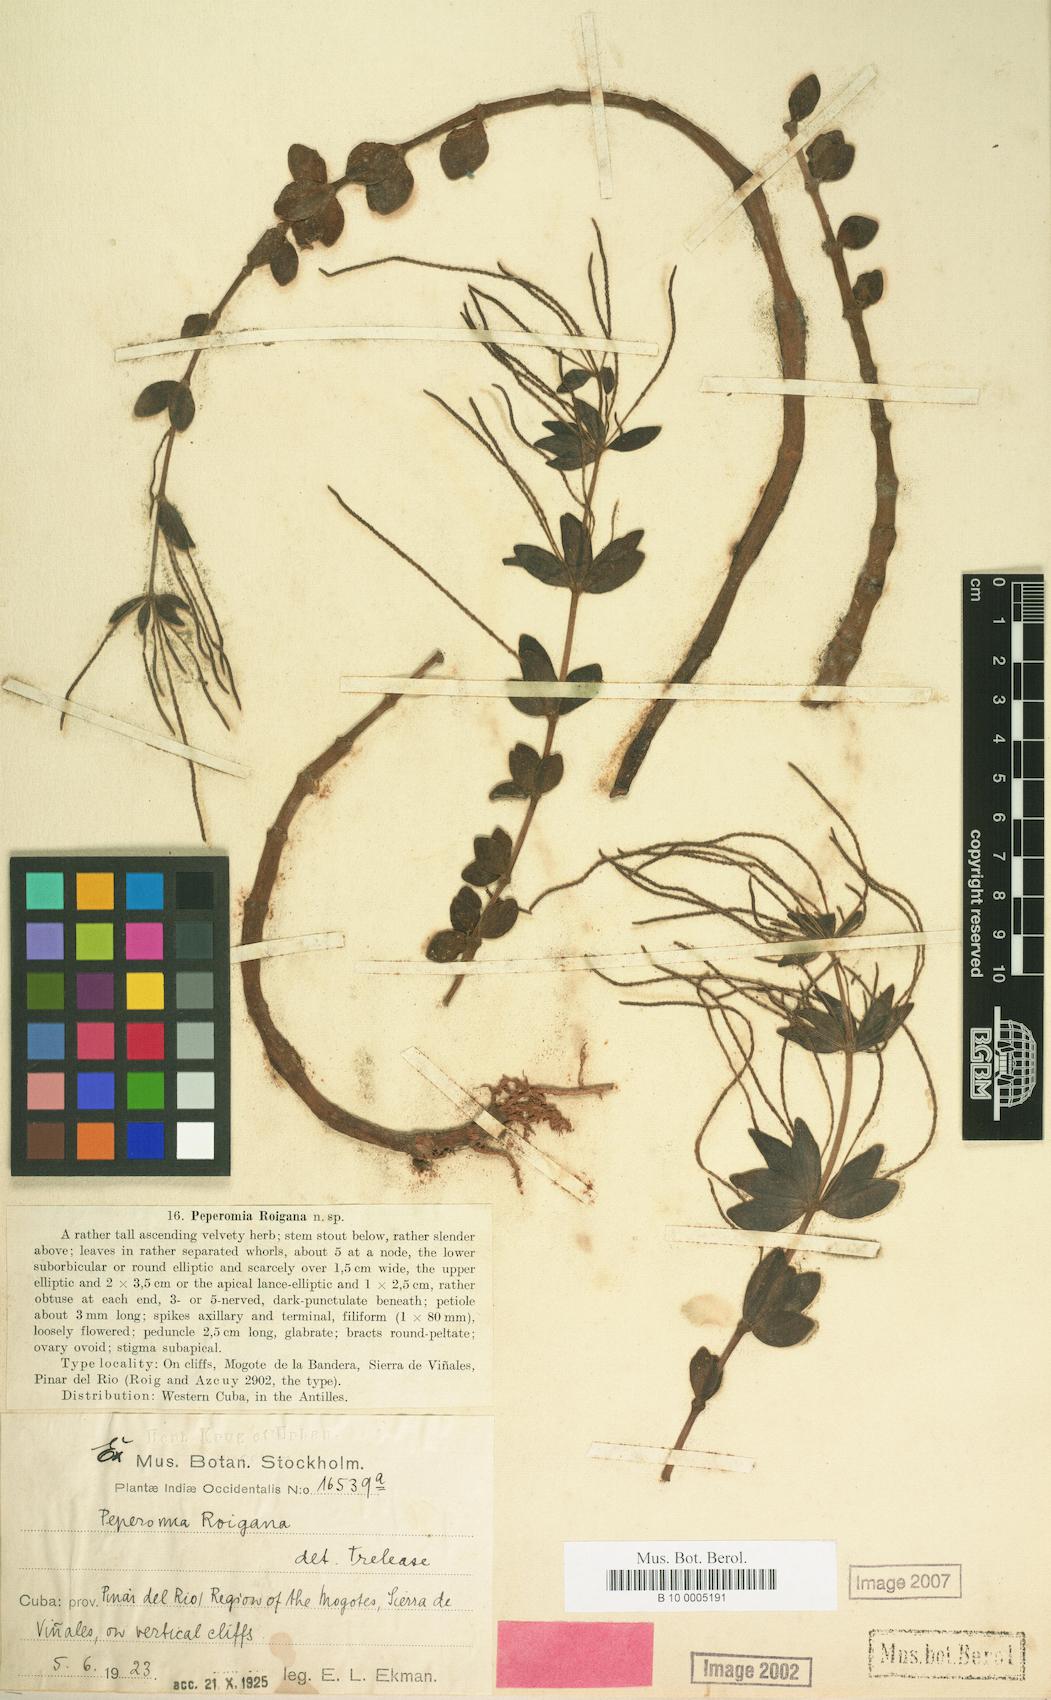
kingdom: Plantae
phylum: Tracheophyta
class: Magnoliopsida
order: Piperales
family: Piperaceae
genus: Peperomia
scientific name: Peperomia verticillata
